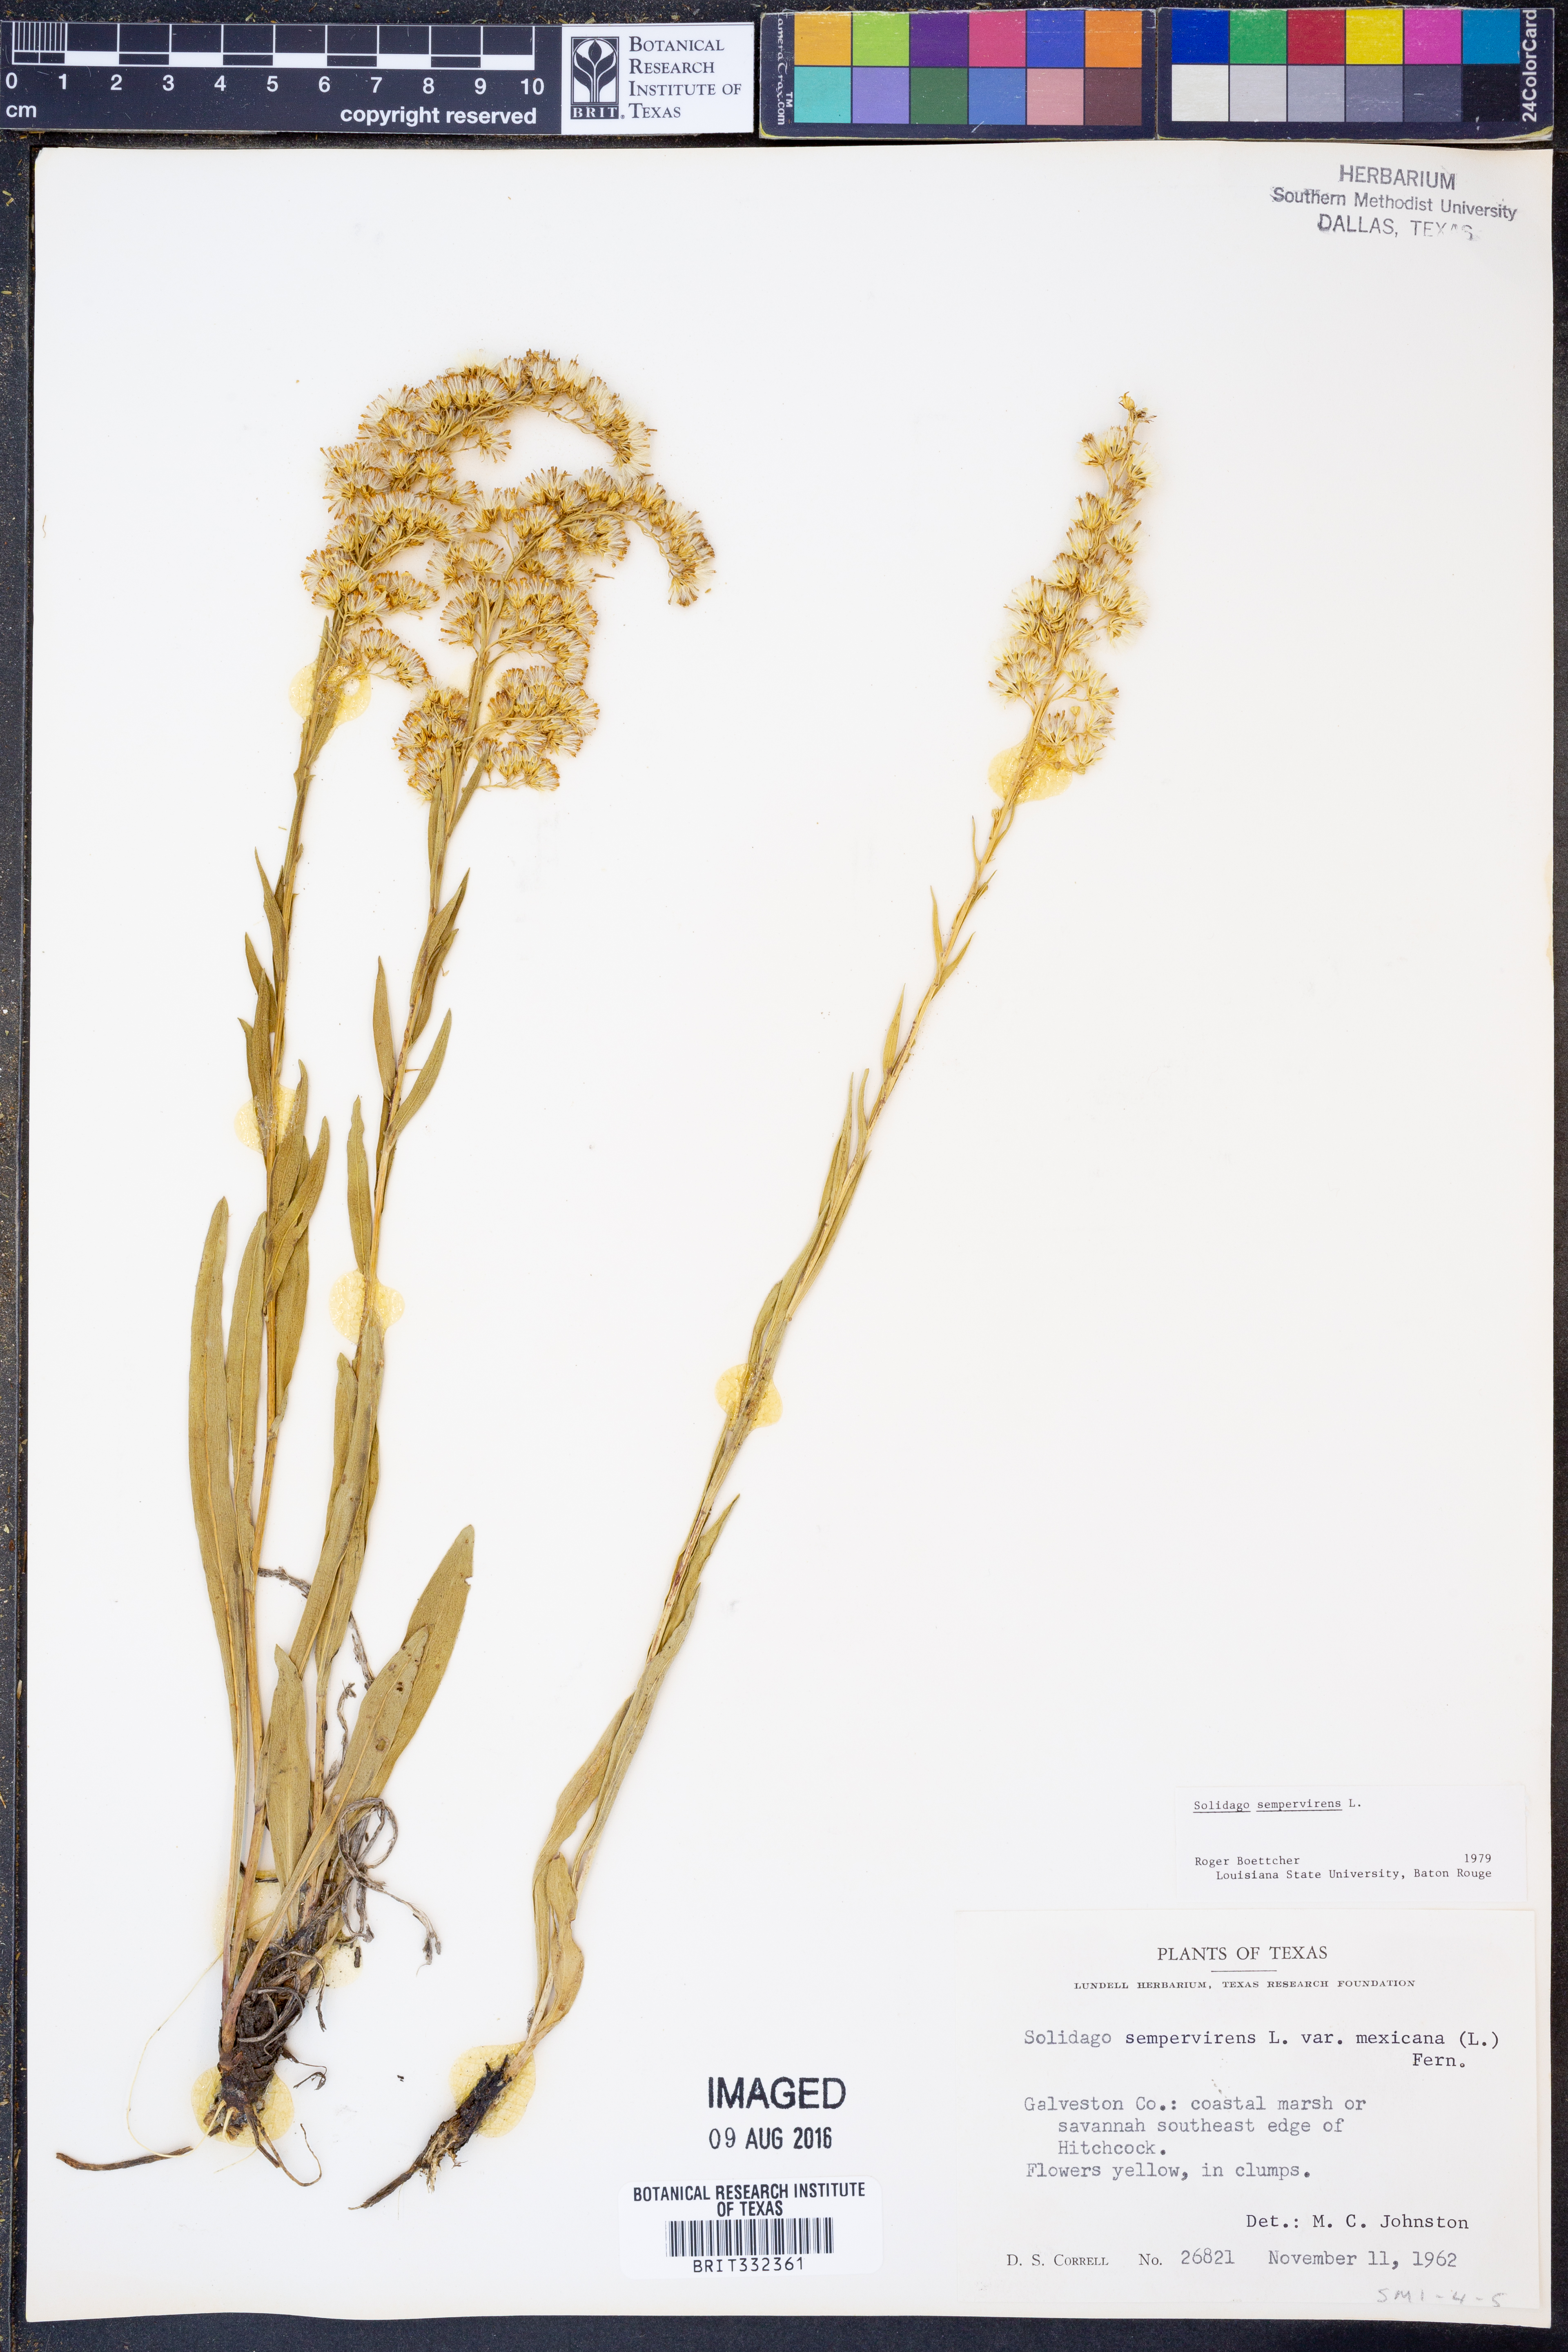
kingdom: Plantae
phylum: Tracheophyta
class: Magnoliopsida
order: Asterales
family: Asteraceae
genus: Solidago
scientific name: Solidago sempervirens
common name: Salt-marsh goldenrod
